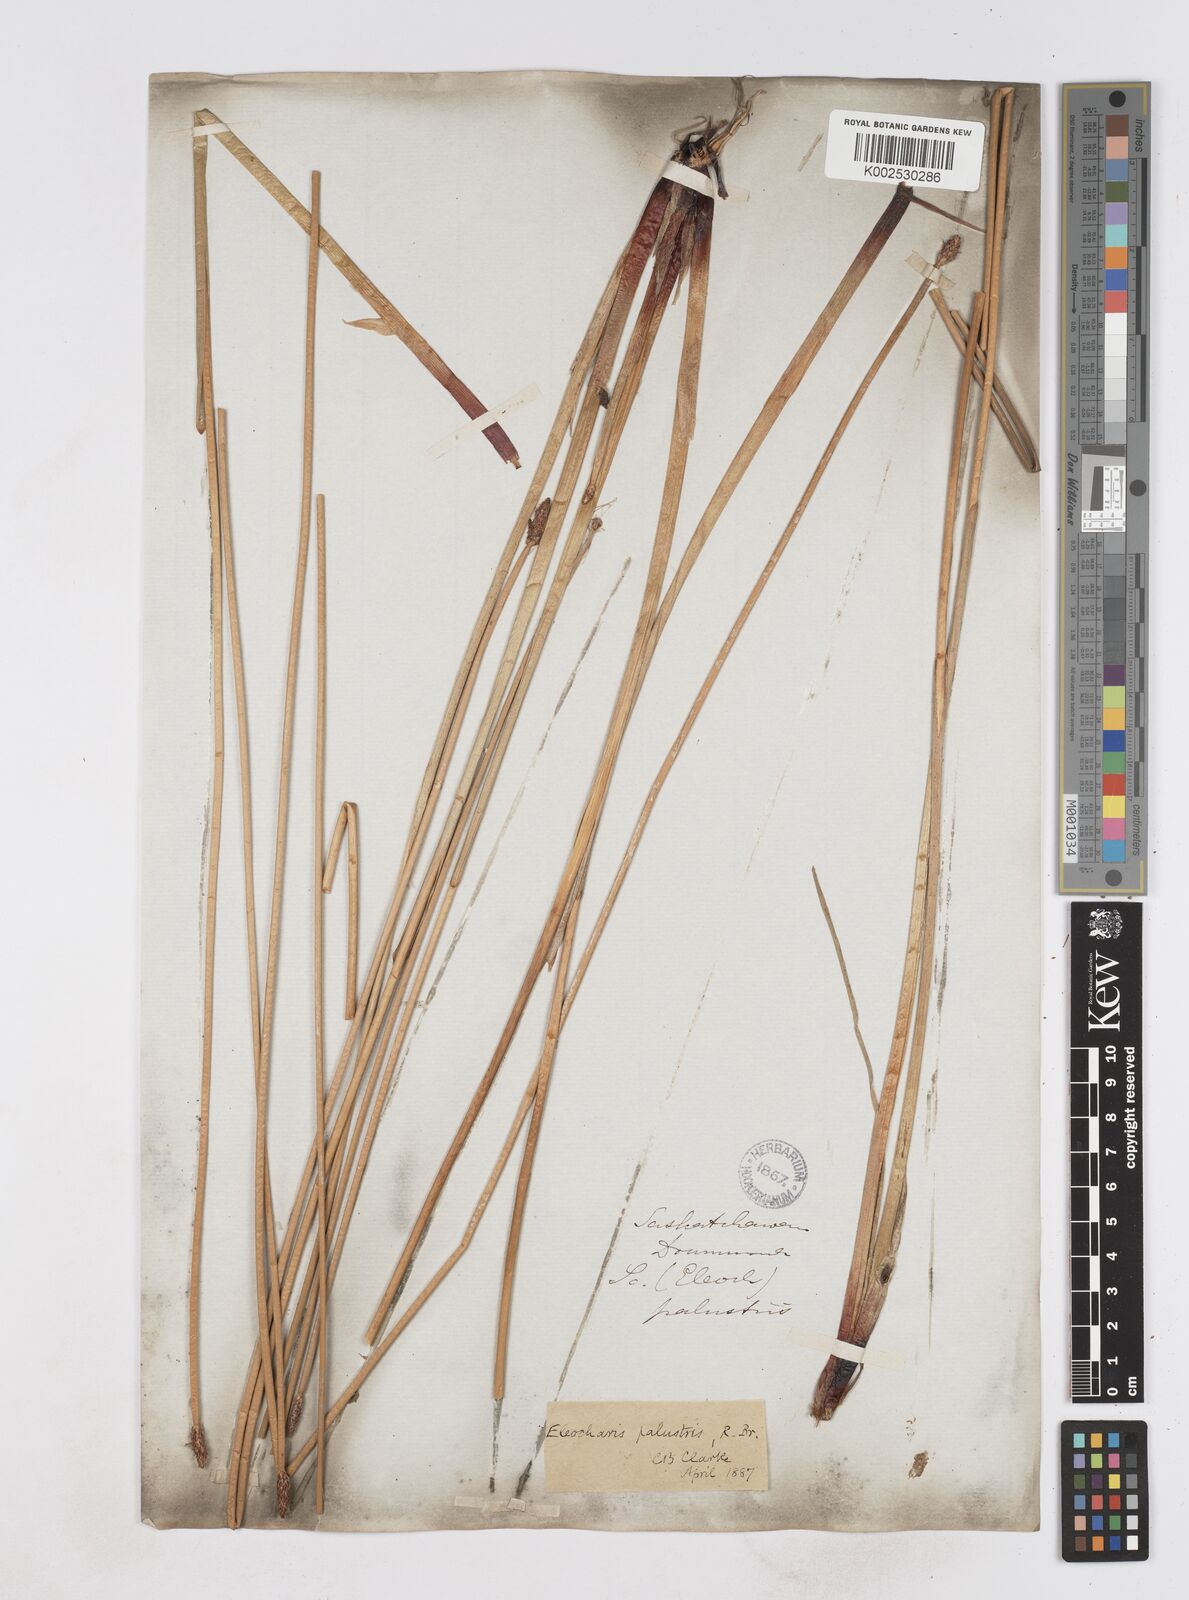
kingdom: Plantae
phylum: Tracheophyta
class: Liliopsida
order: Poales
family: Cyperaceae
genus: Eleocharis
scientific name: Eleocharis montana
